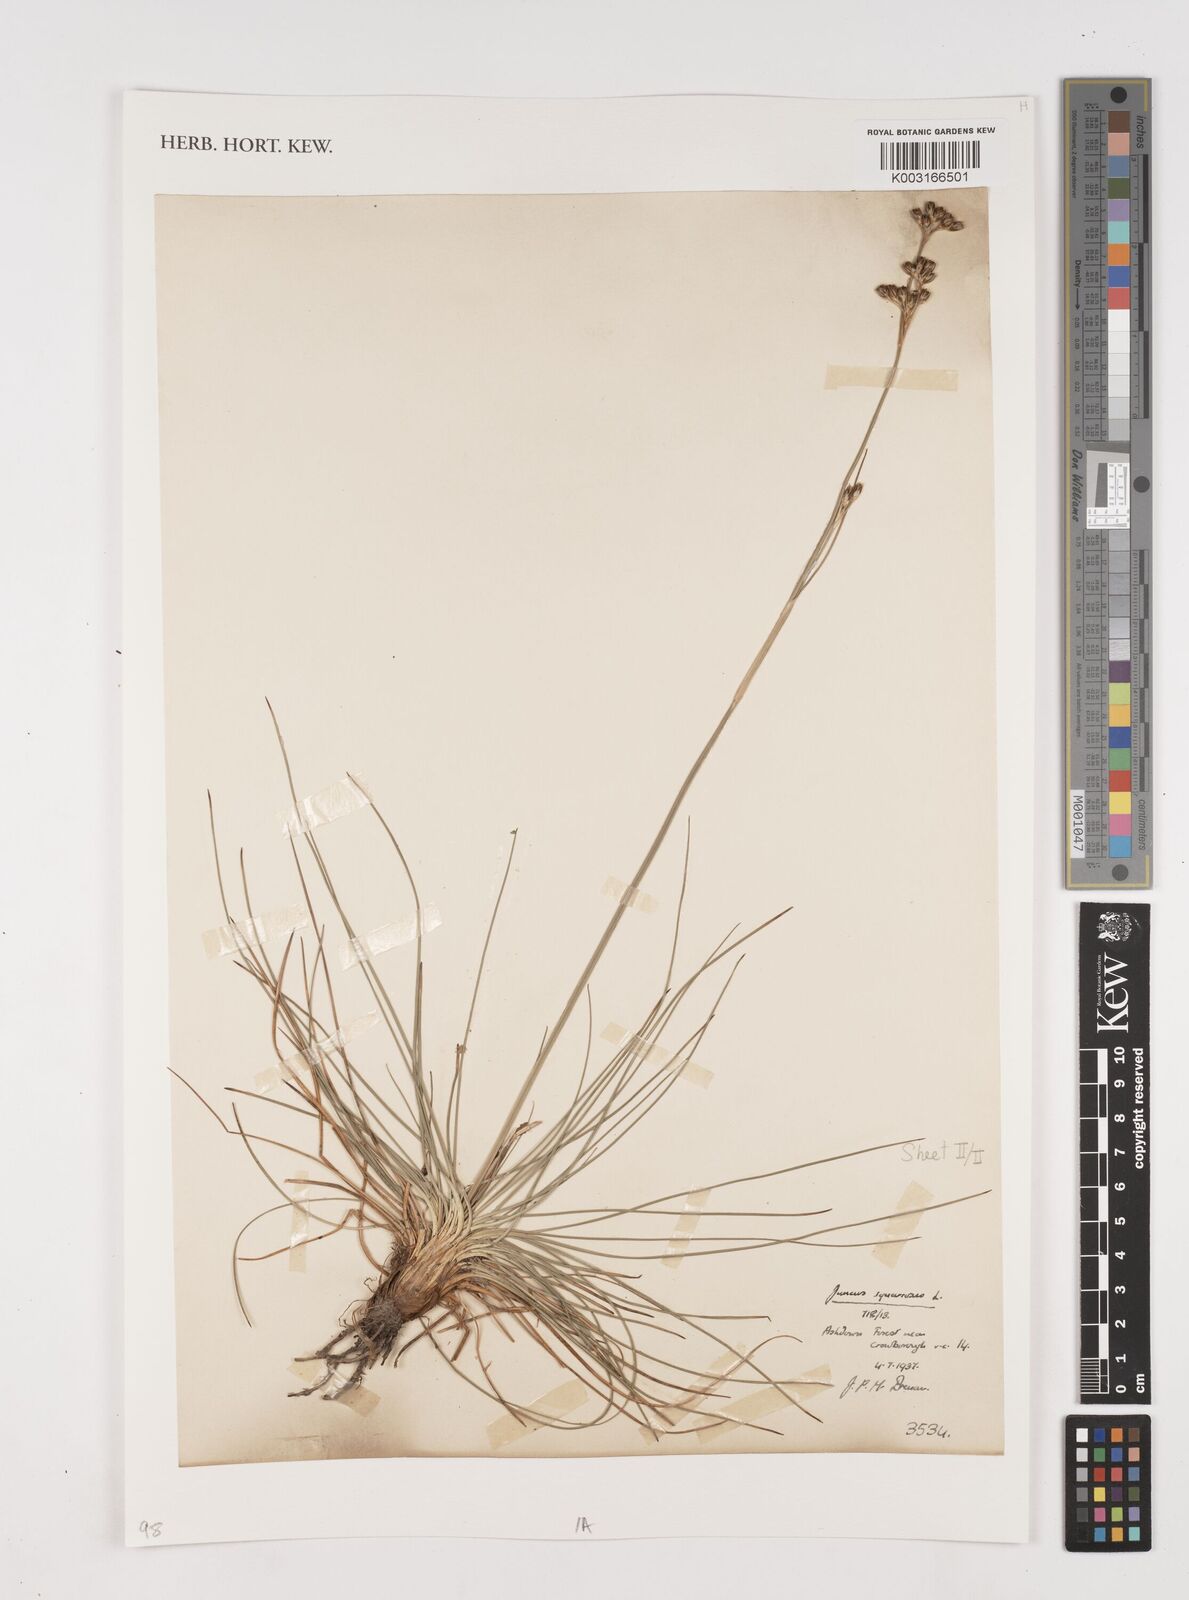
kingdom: Plantae
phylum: Tracheophyta
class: Liliopsida
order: Poales
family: Juncaceae
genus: Juncus
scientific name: Juncus squarrosus
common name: Heath rush
